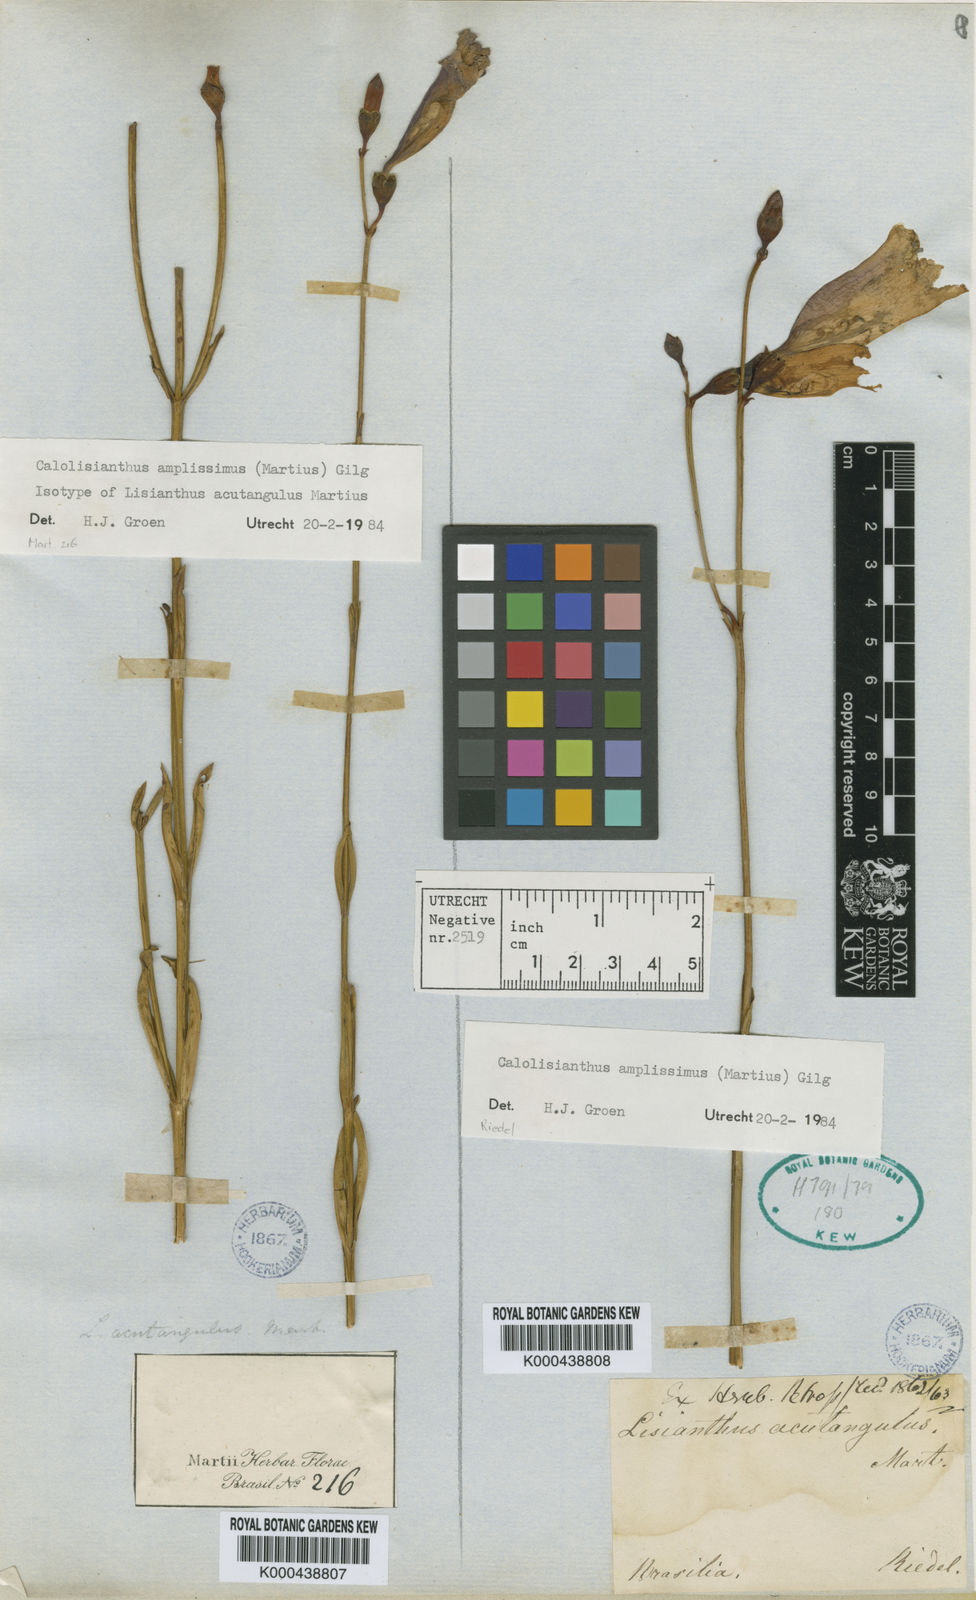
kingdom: Plantae
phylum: Tracheophyta
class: Magnoliopsida
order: Gentianales
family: Gentianaceae
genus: Calolisianthus
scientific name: Calolisianthus amplissimus
